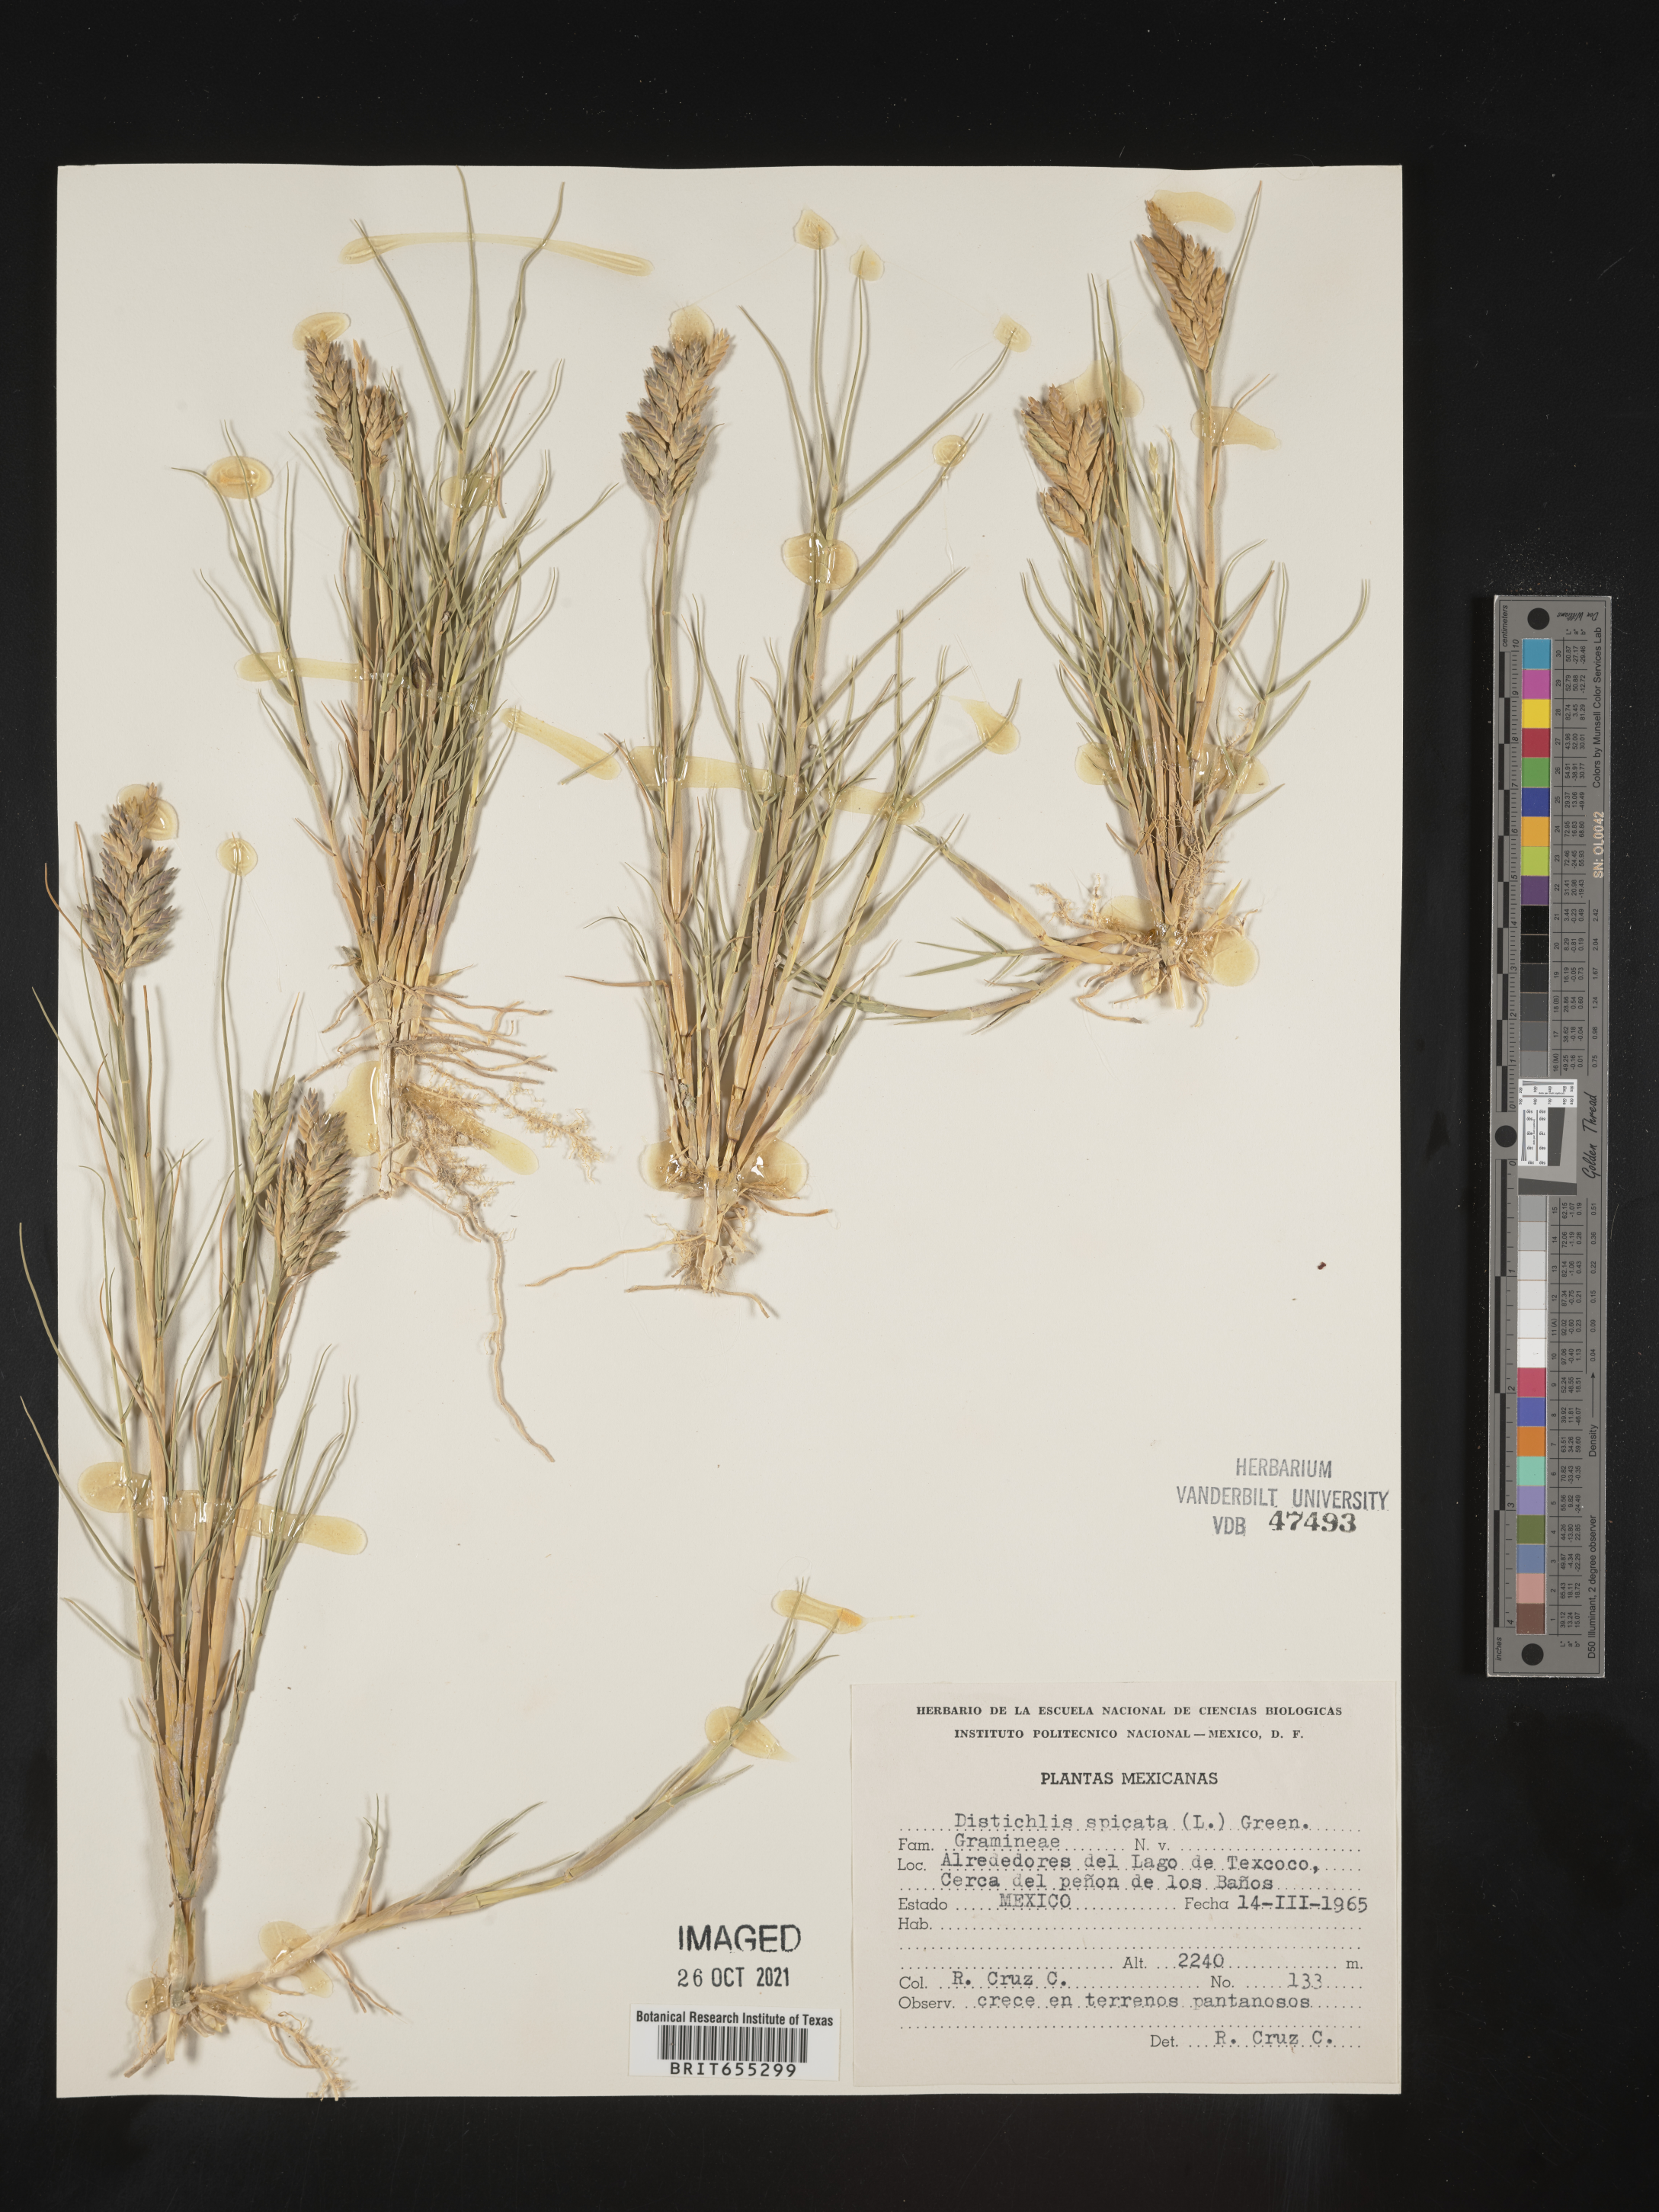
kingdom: Plantae
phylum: Tracheophyta
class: Liliopsida
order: Poales
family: Poaceae
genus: Distichlis
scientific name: Distichlis
